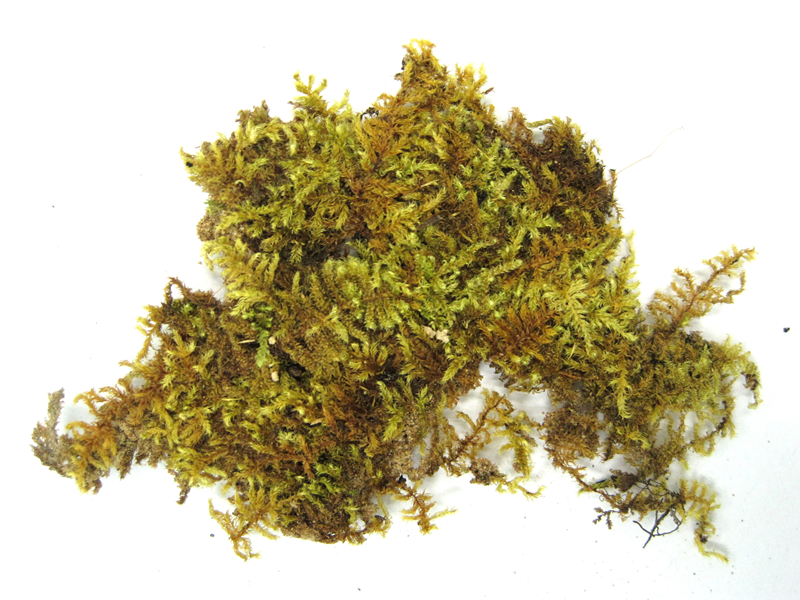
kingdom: Plantae
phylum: Bryophyta
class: Bryopsida
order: Hypnales
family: Hypnaceae
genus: Vesicularia
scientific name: Vesicularia reticulata
